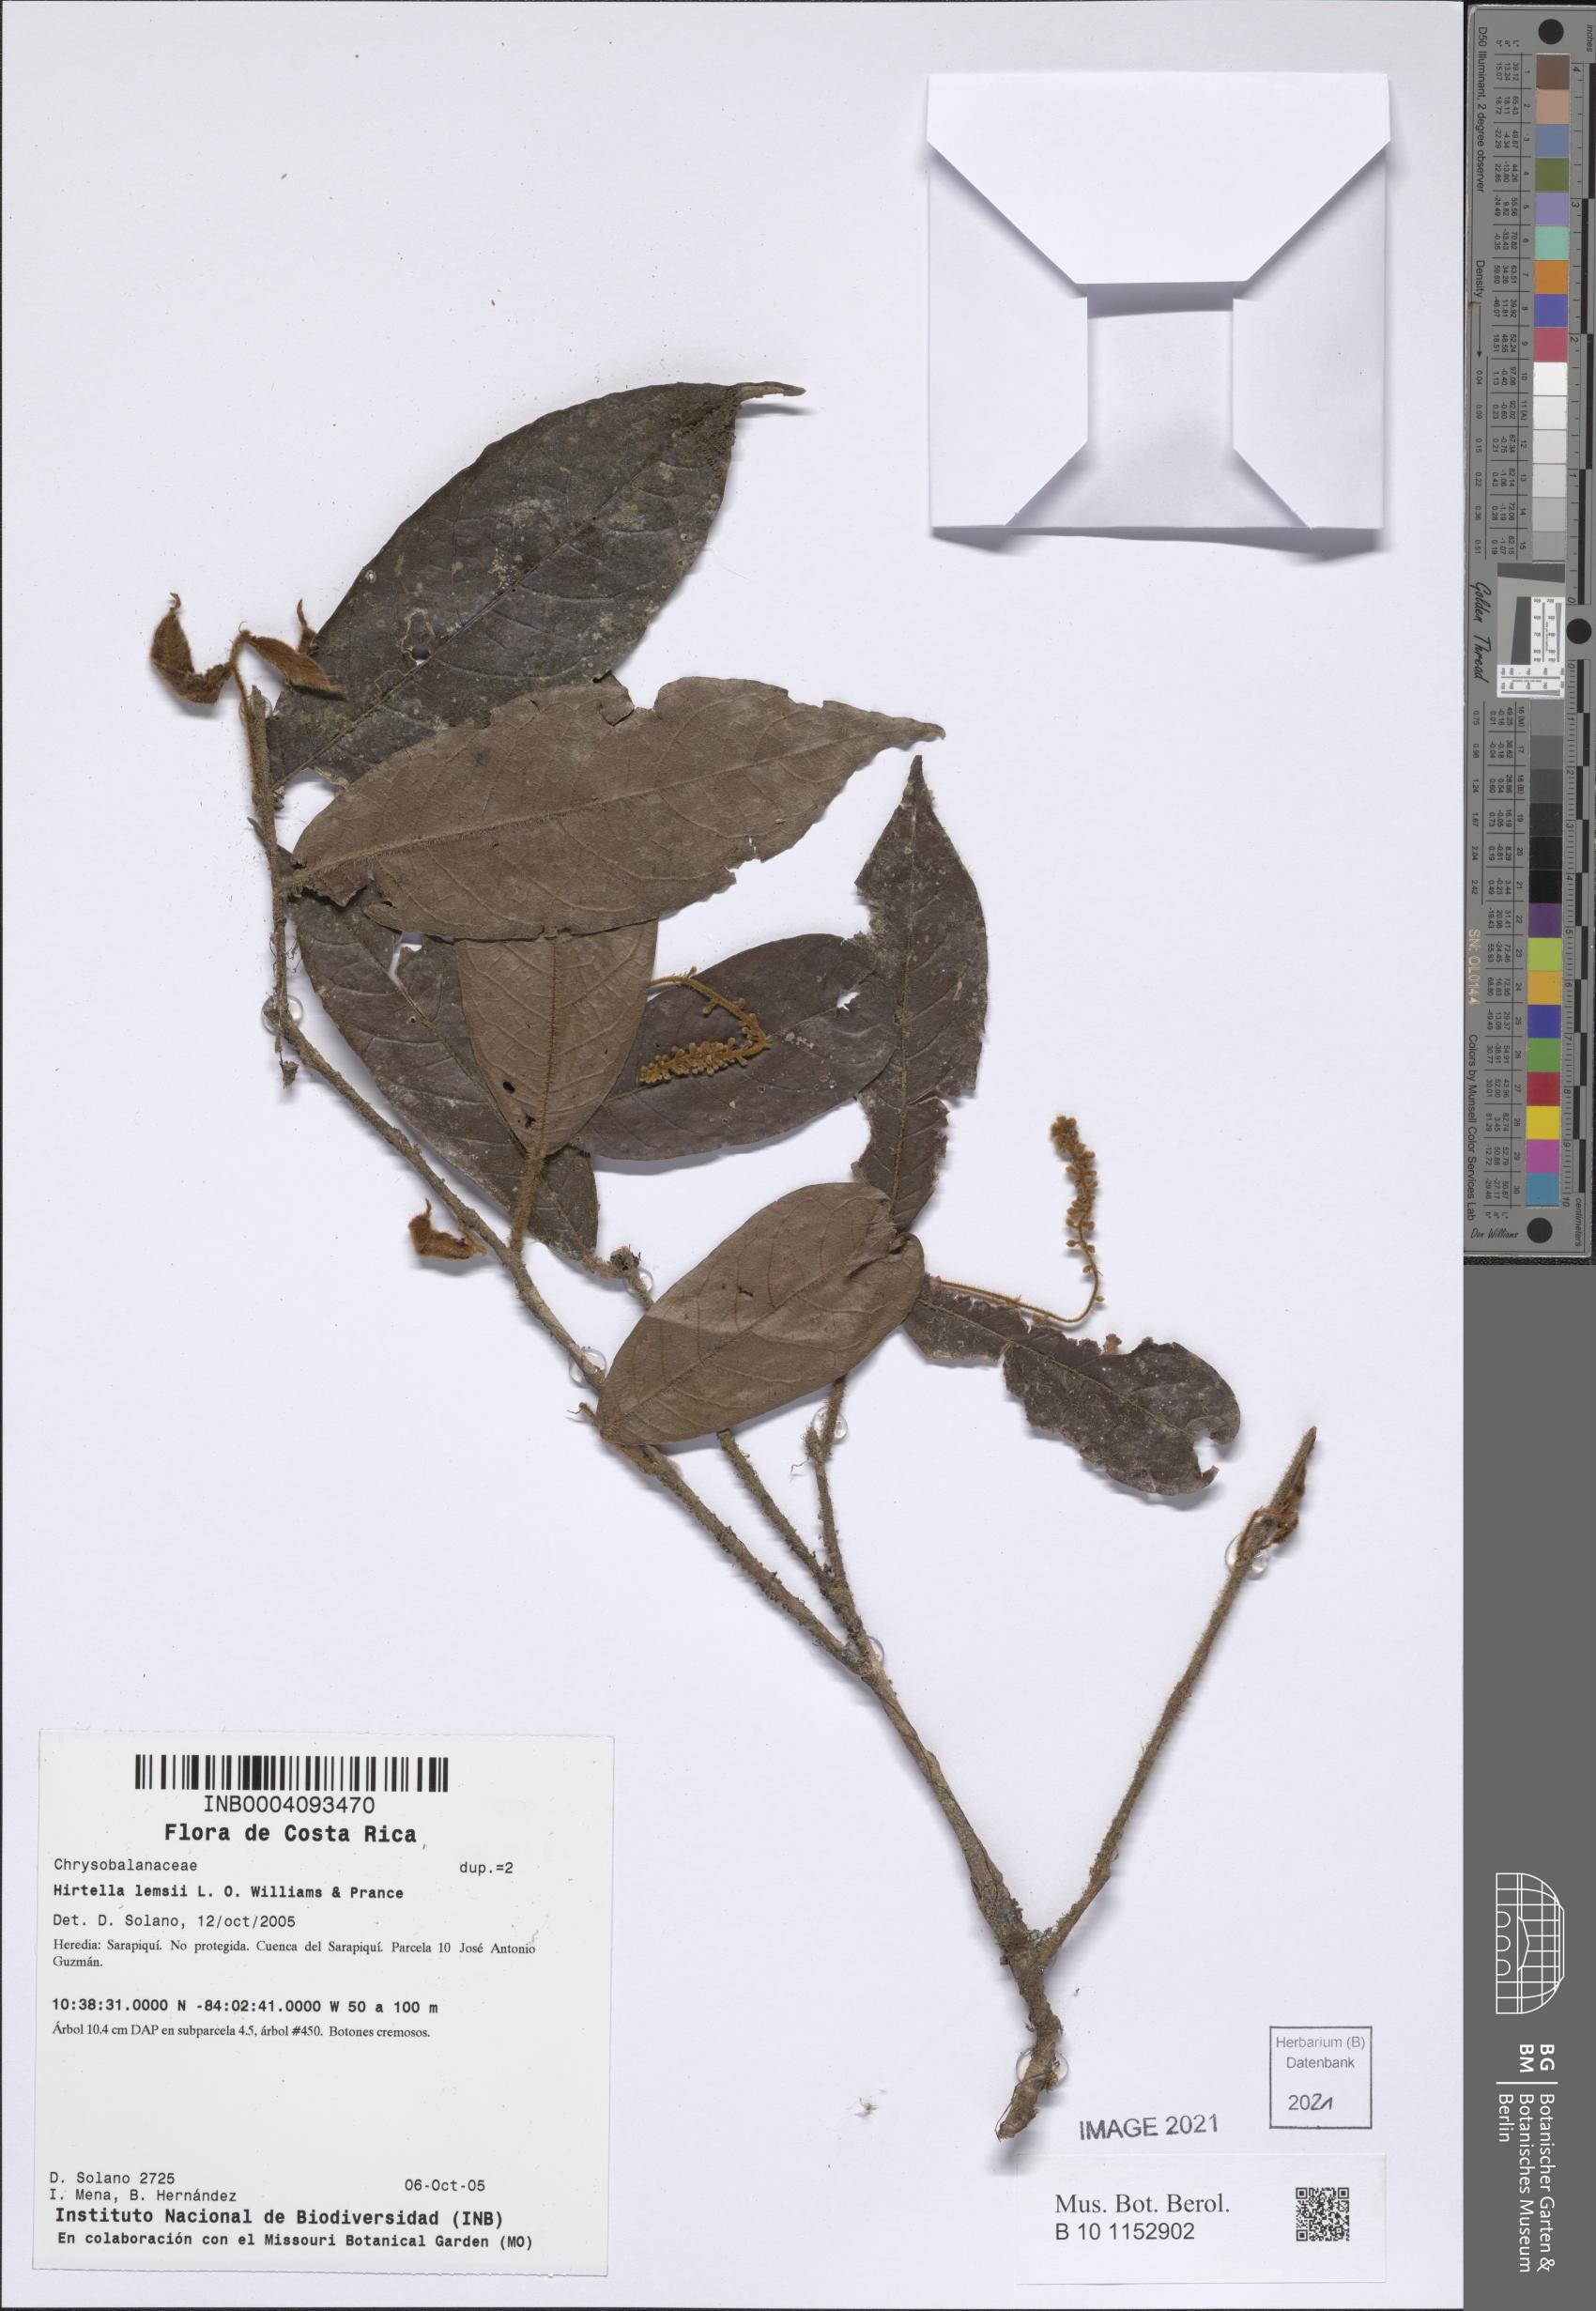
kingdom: Plantae
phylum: Tracheophyta
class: Magnoliopsida
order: Malpighiales
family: Chrysobalanaceae
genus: Hirtella
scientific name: Hirtella lemsii
